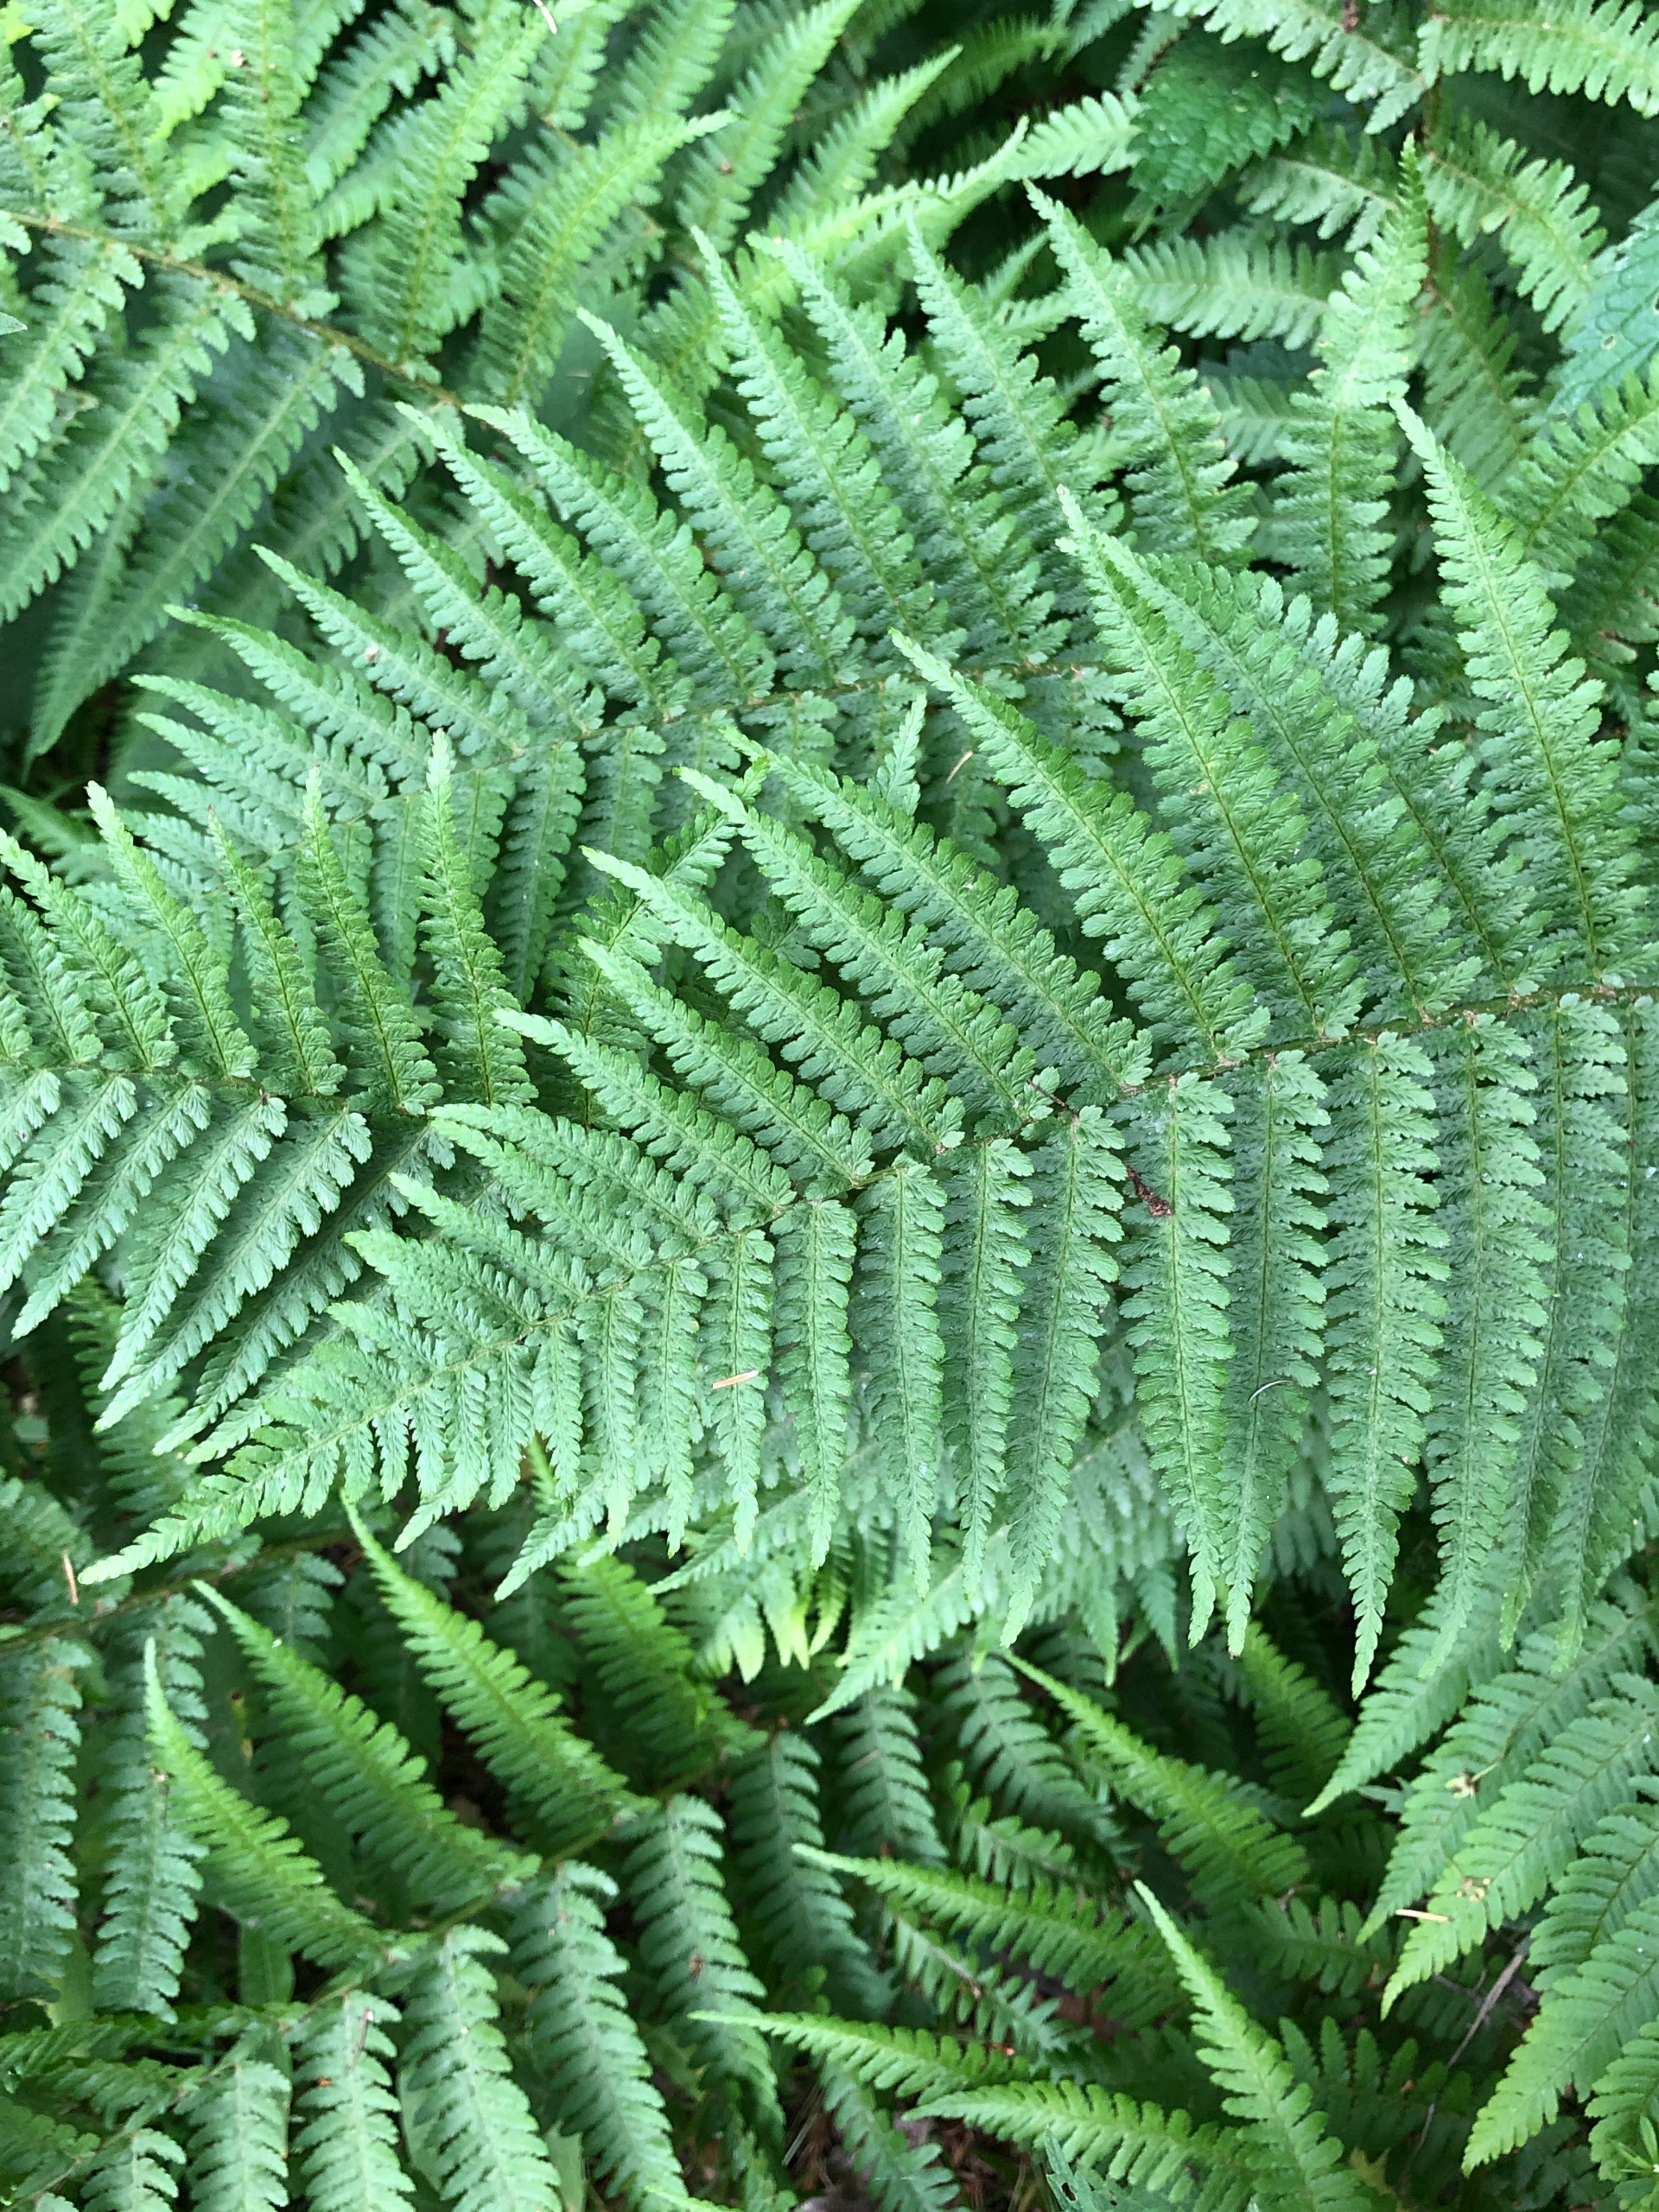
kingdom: Plantae
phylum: Tracheophyta
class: Polypodiopsida
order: Polypodiales
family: Dryopteridaceae
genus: Dryopteris
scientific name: Dryopteris filix-mas
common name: Almindelig mangeløv
